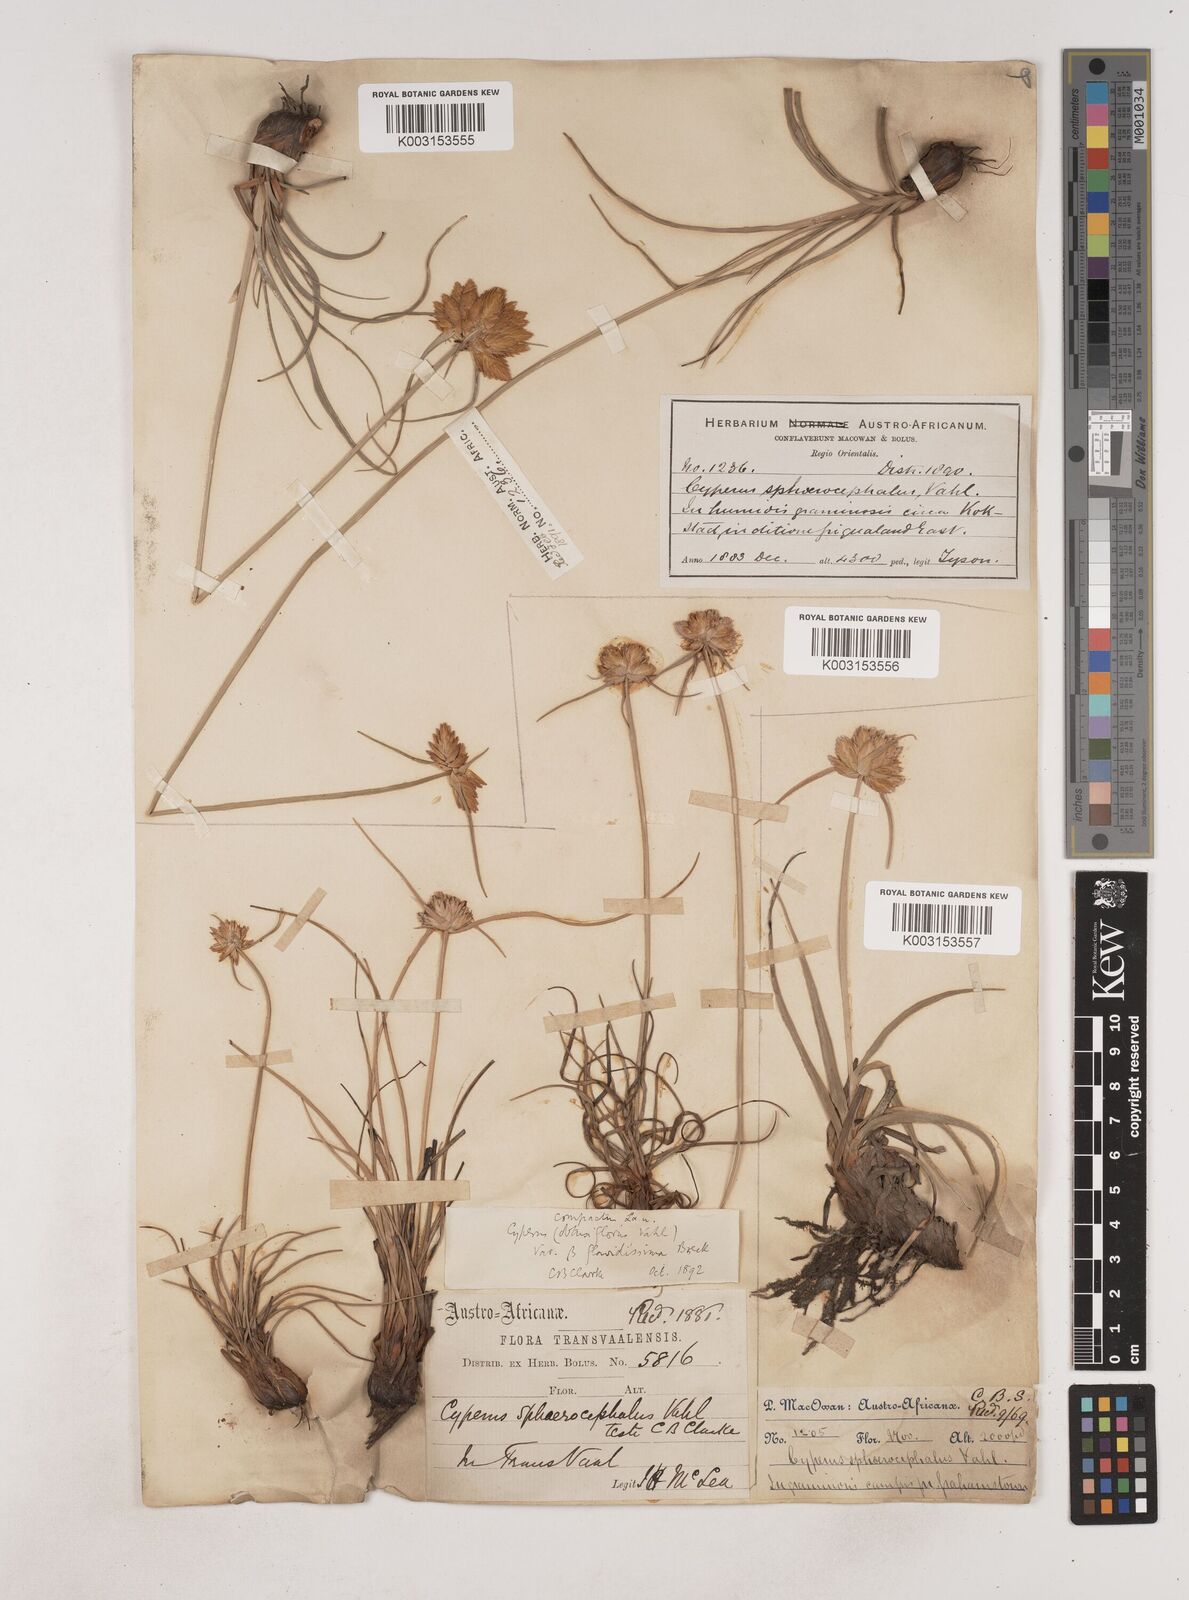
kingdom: Plantae
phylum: Tracheophyta
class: Liliopsida
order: Poales
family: Cyperaceae
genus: Cyperus
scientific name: Cyperus niveus
